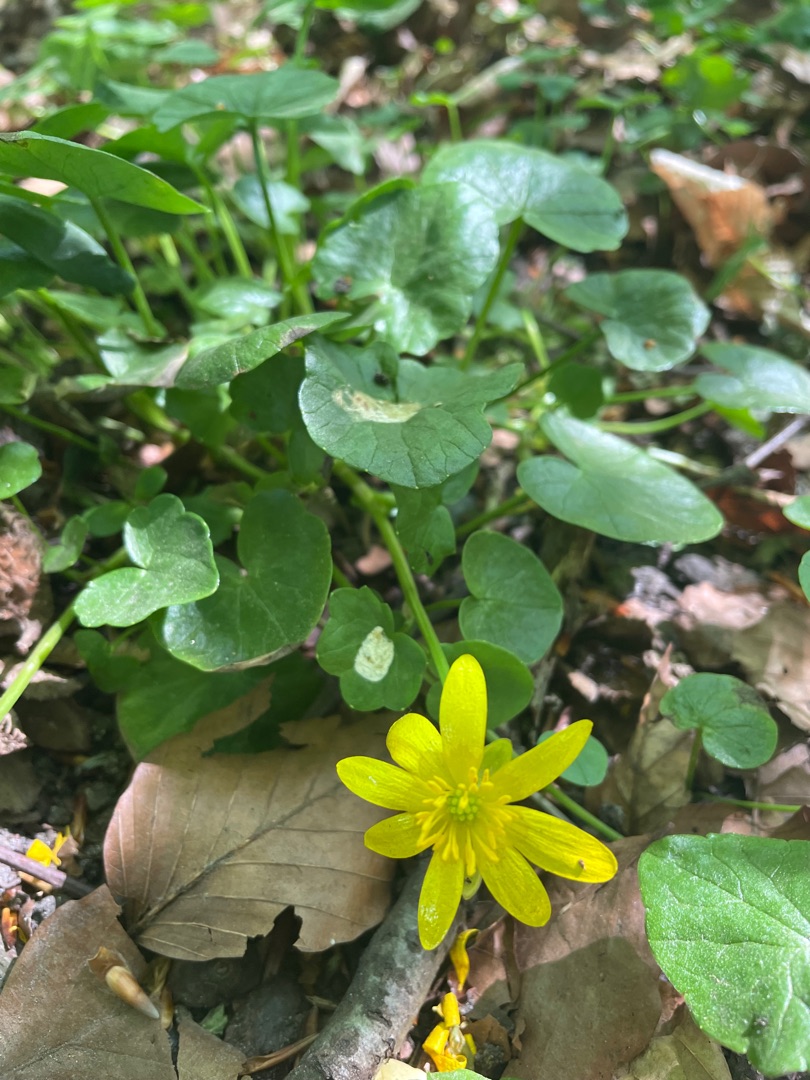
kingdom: Plantae
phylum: Tracheophyta
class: Magnoliopsida
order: Ranunculales
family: Ranunculaceae
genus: Ficaria
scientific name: Ficaria verna
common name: Vorterod
